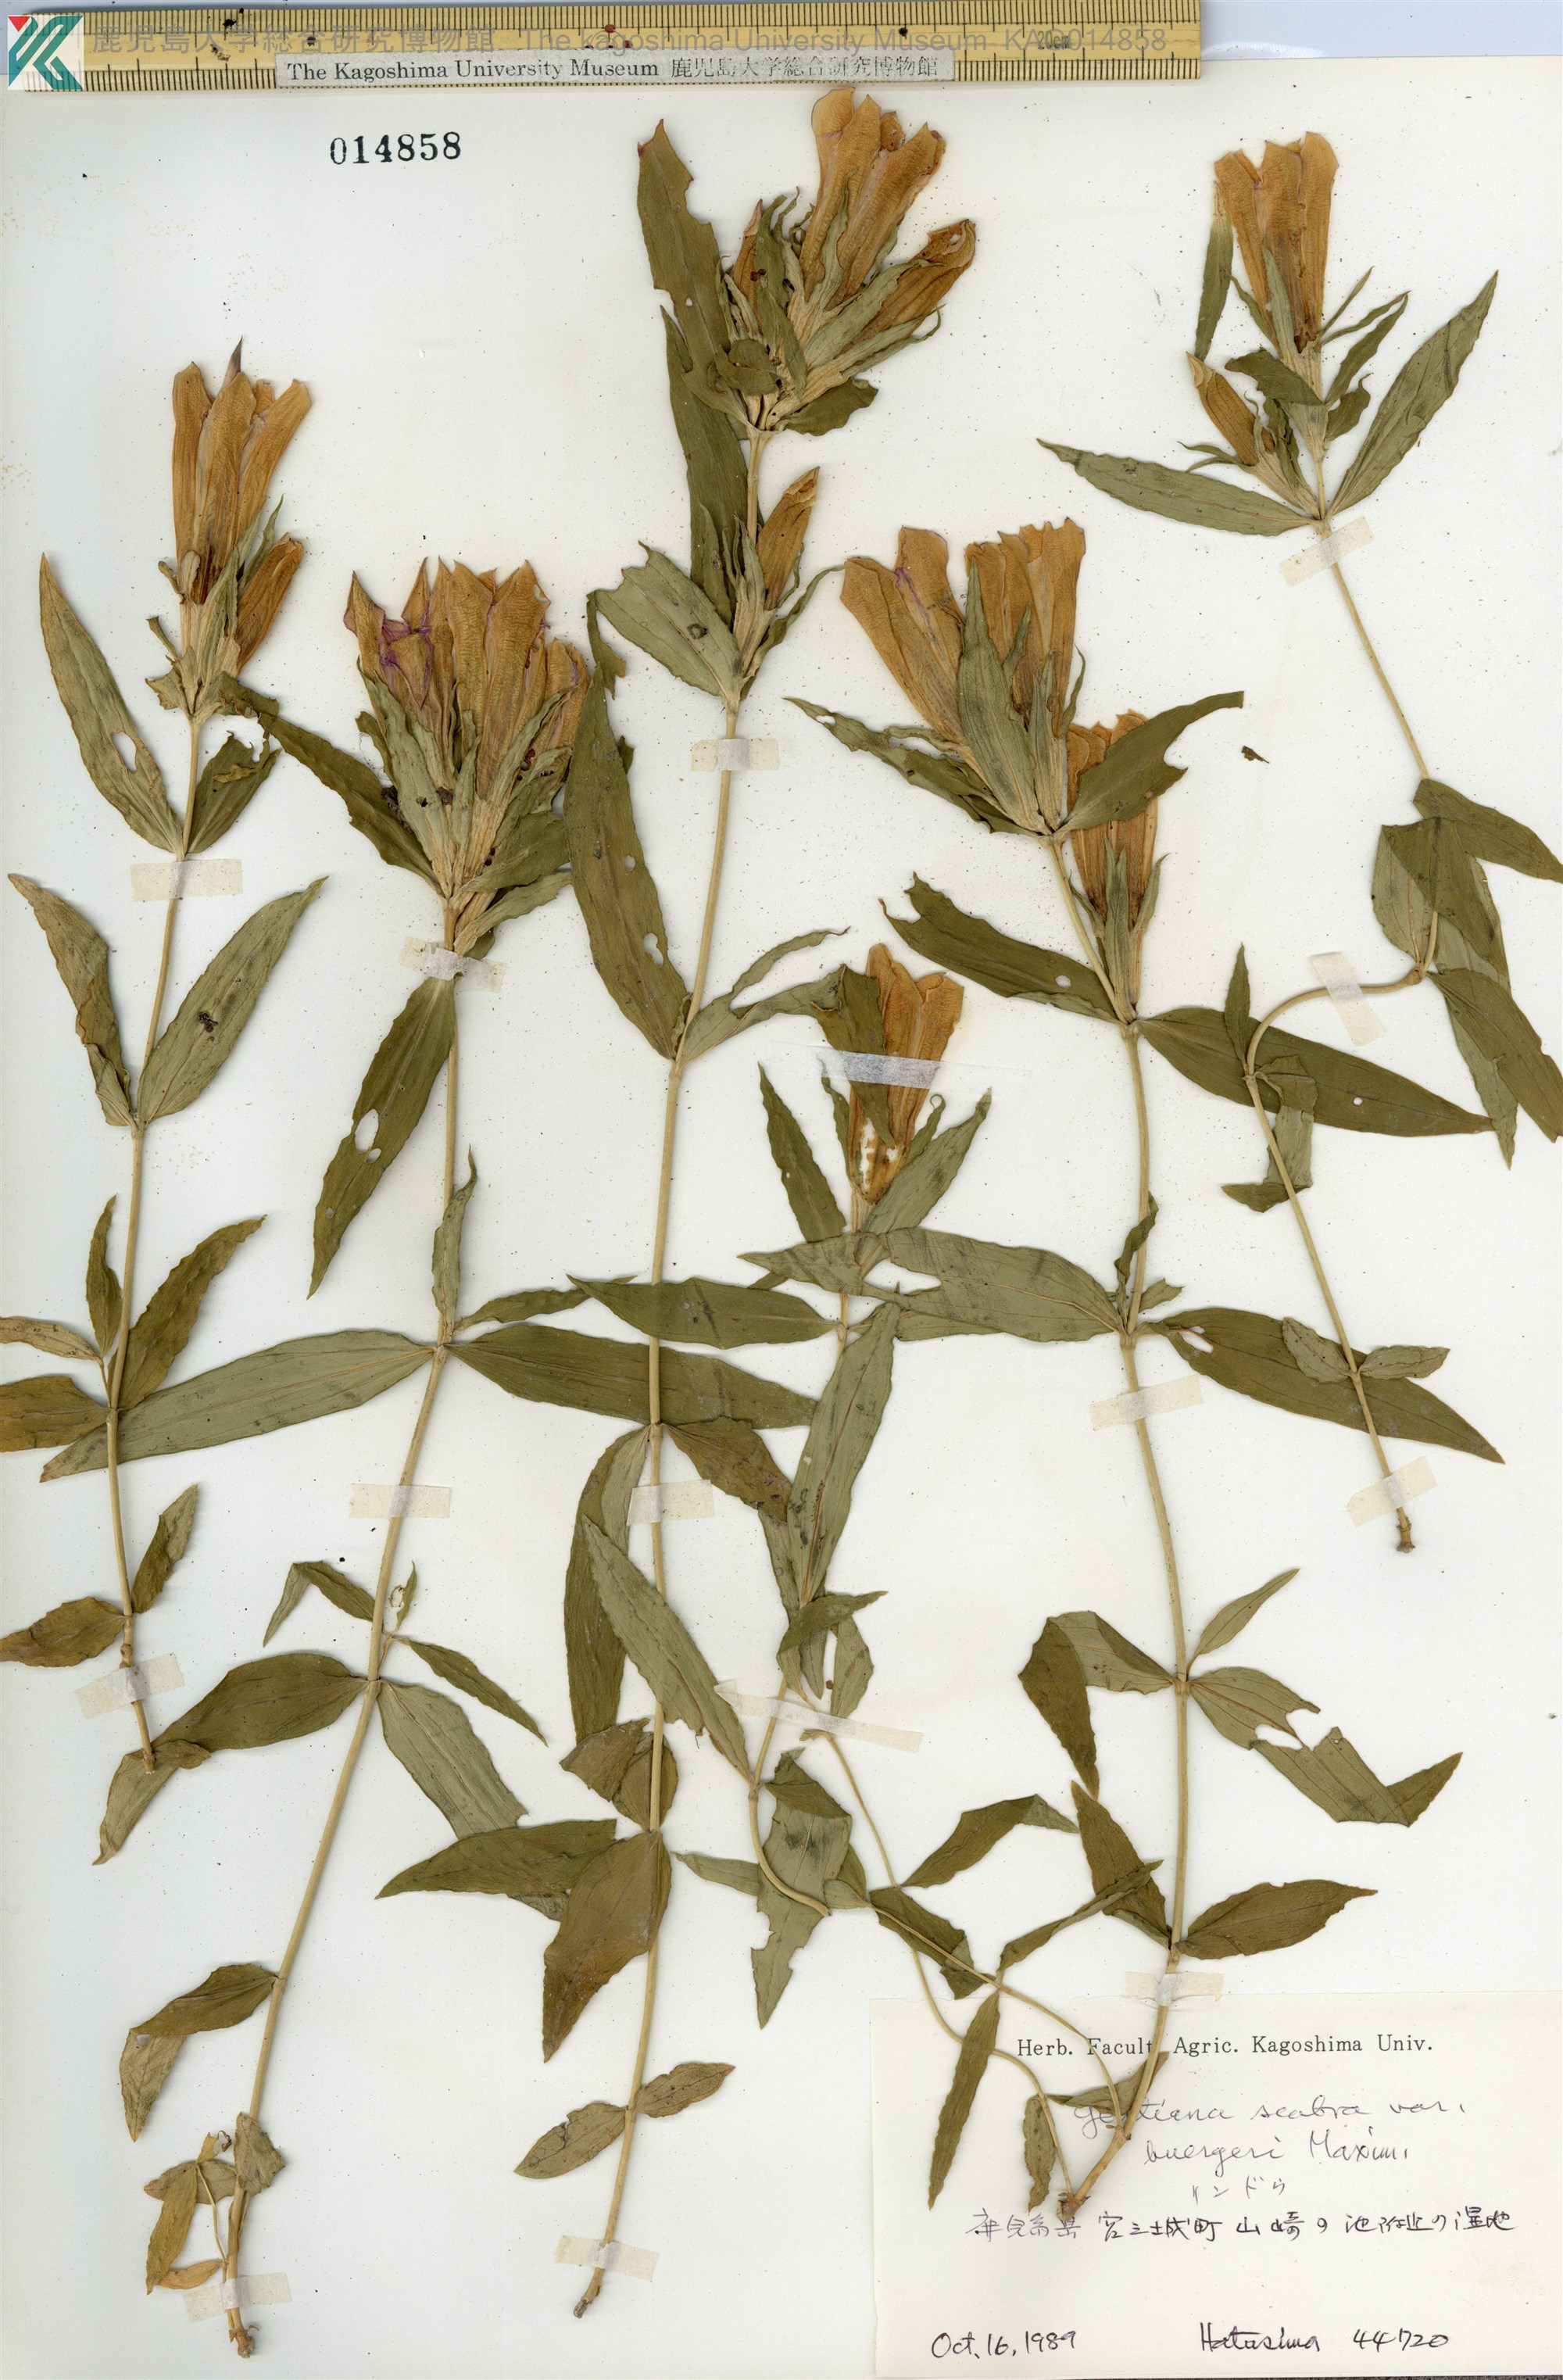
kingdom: Plantae
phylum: Tracheophyta
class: Magnoliopsida
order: Gentianales
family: Gentianaceae
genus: Gentiana
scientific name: Gentiana scabra
